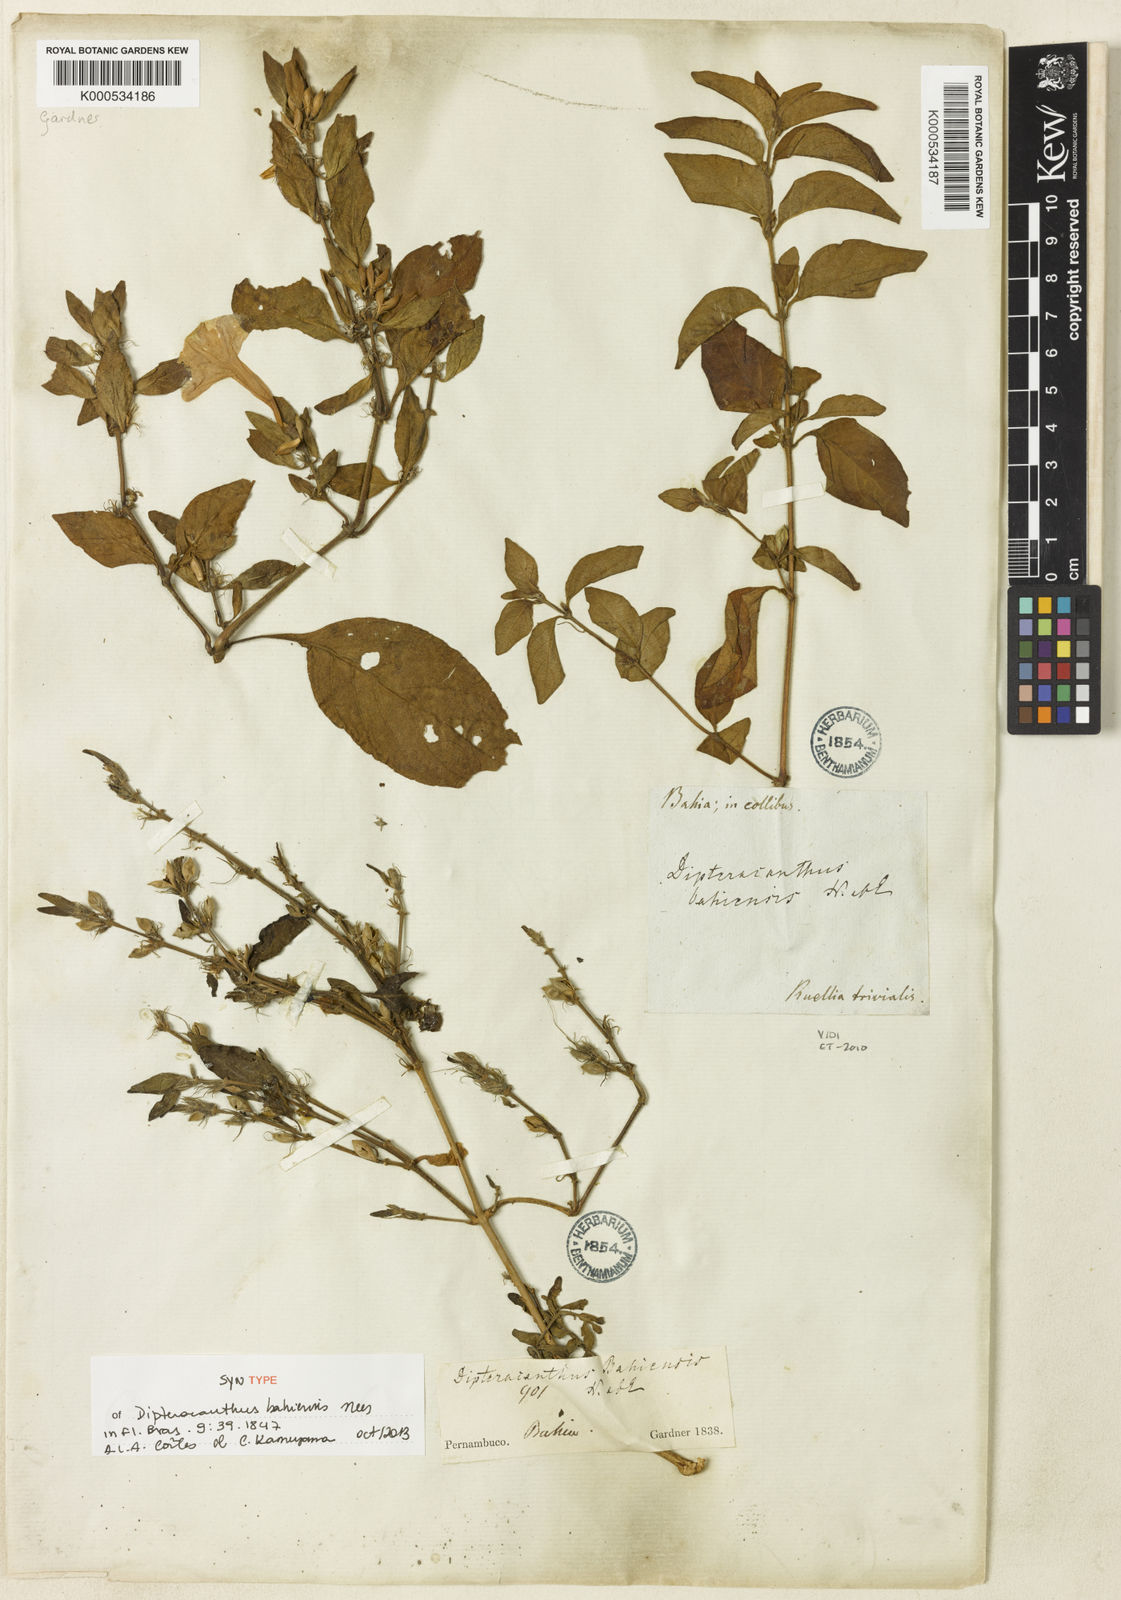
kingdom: Plantae
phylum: Tracheophyta
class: Magnoliopsida
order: Lamiales
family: Acanthaceae
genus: Ruellia
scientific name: Ruellia bahiensis
